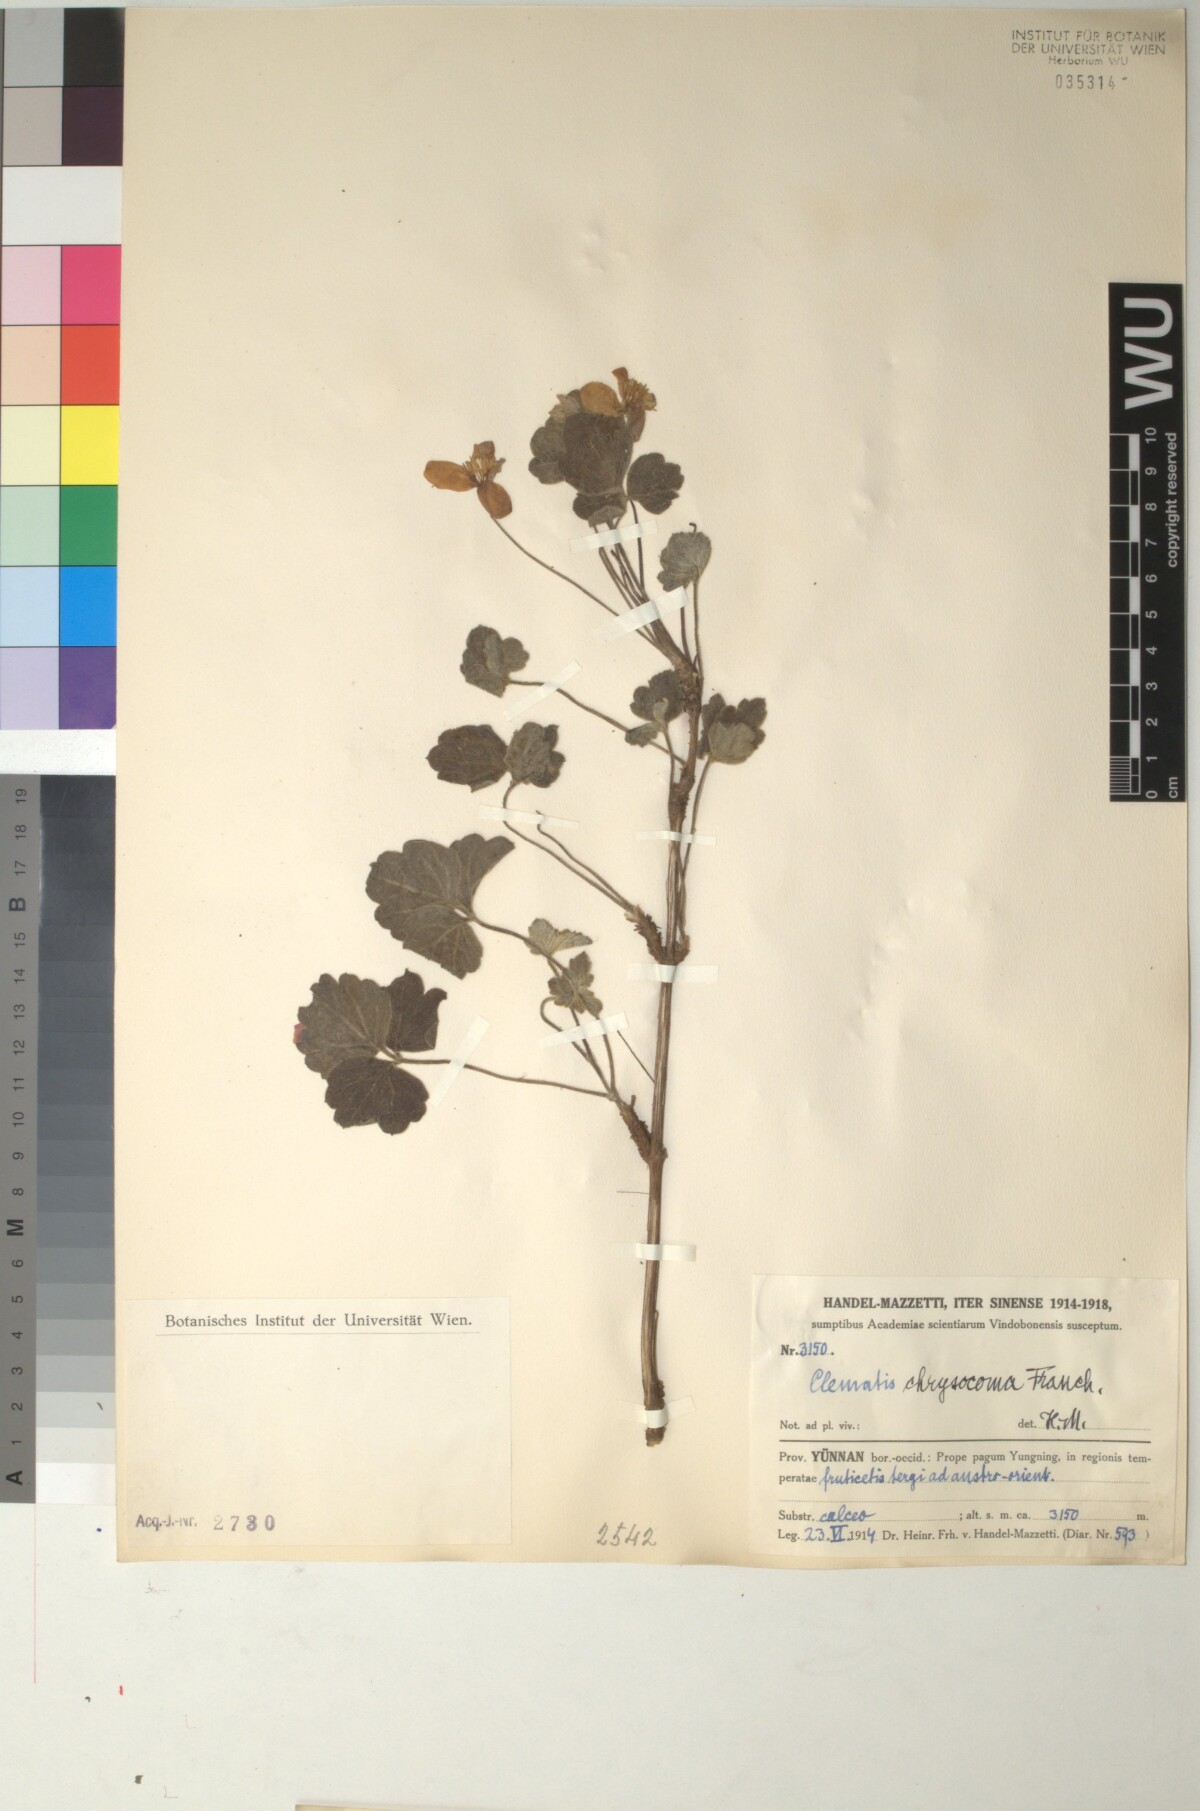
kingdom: Plantae
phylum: Tracheophyta
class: Magnoliopsida
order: Ranunculales
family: Ranunculaceae
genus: Clematis
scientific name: Clematis chrysocoma
